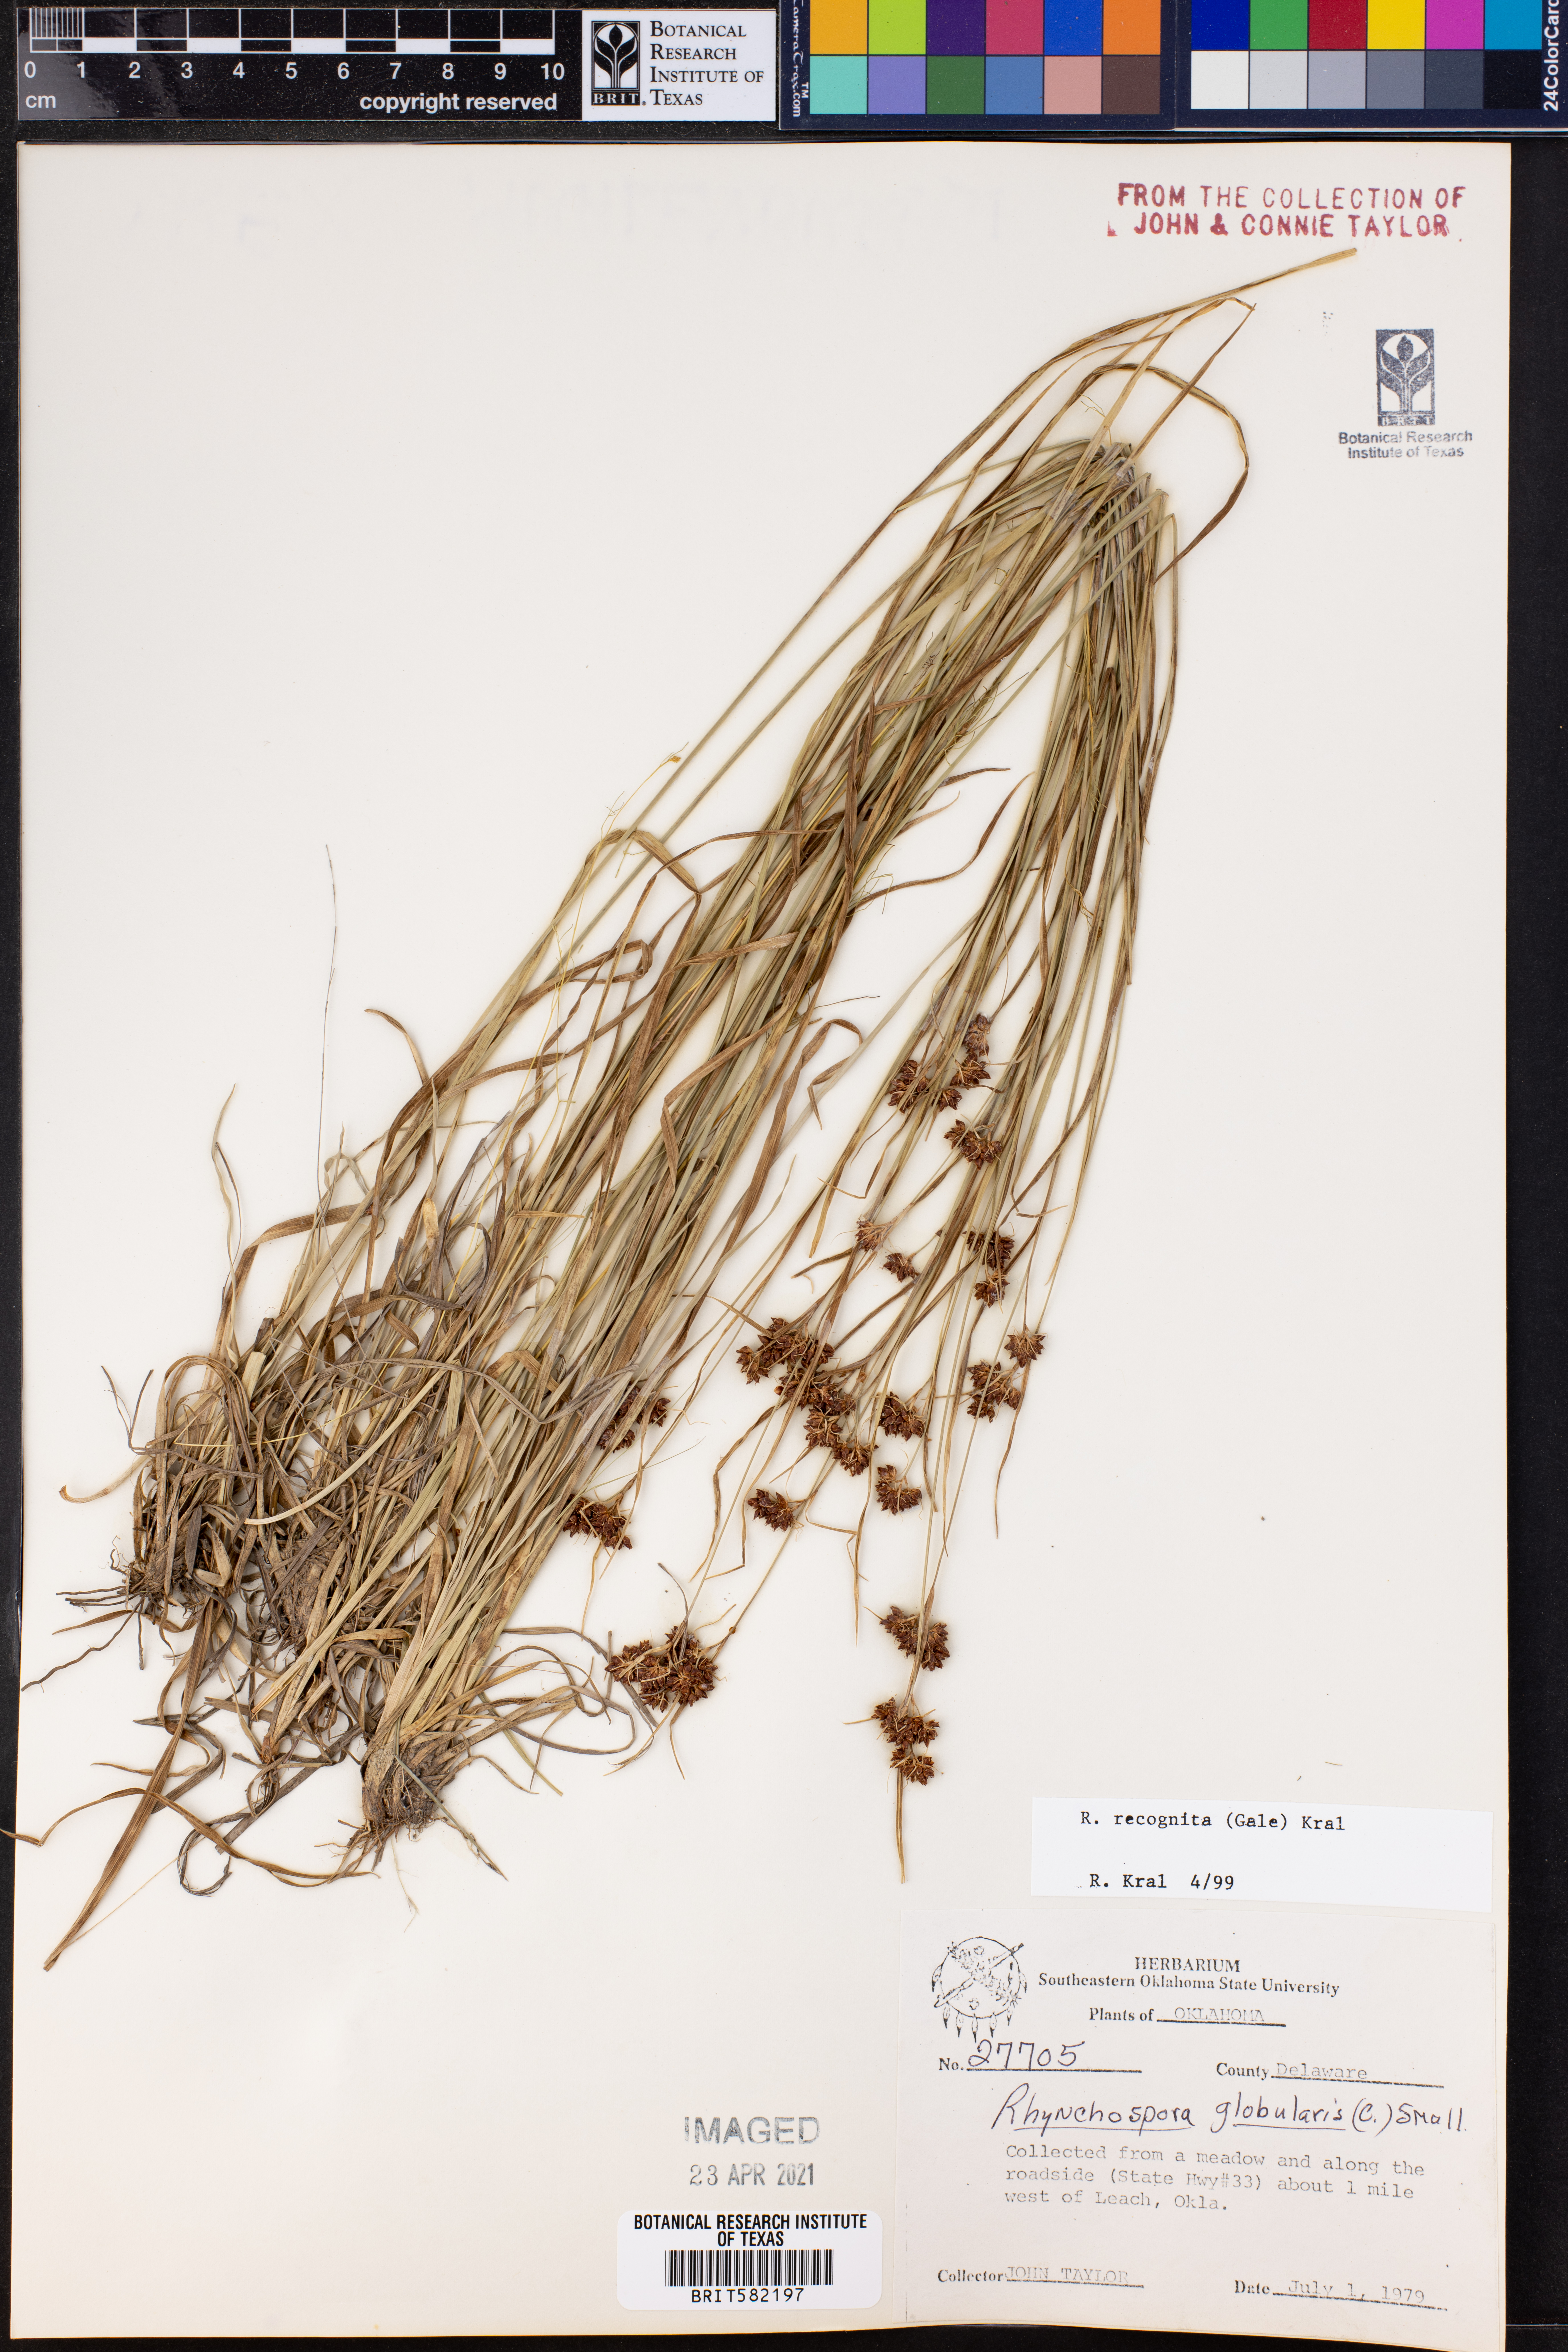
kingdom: Plantae
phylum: Tracheophyta
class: Liliopsida
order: Poales
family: Cyperaceae
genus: Rhynchospora
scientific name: Rhynchospora recognita
